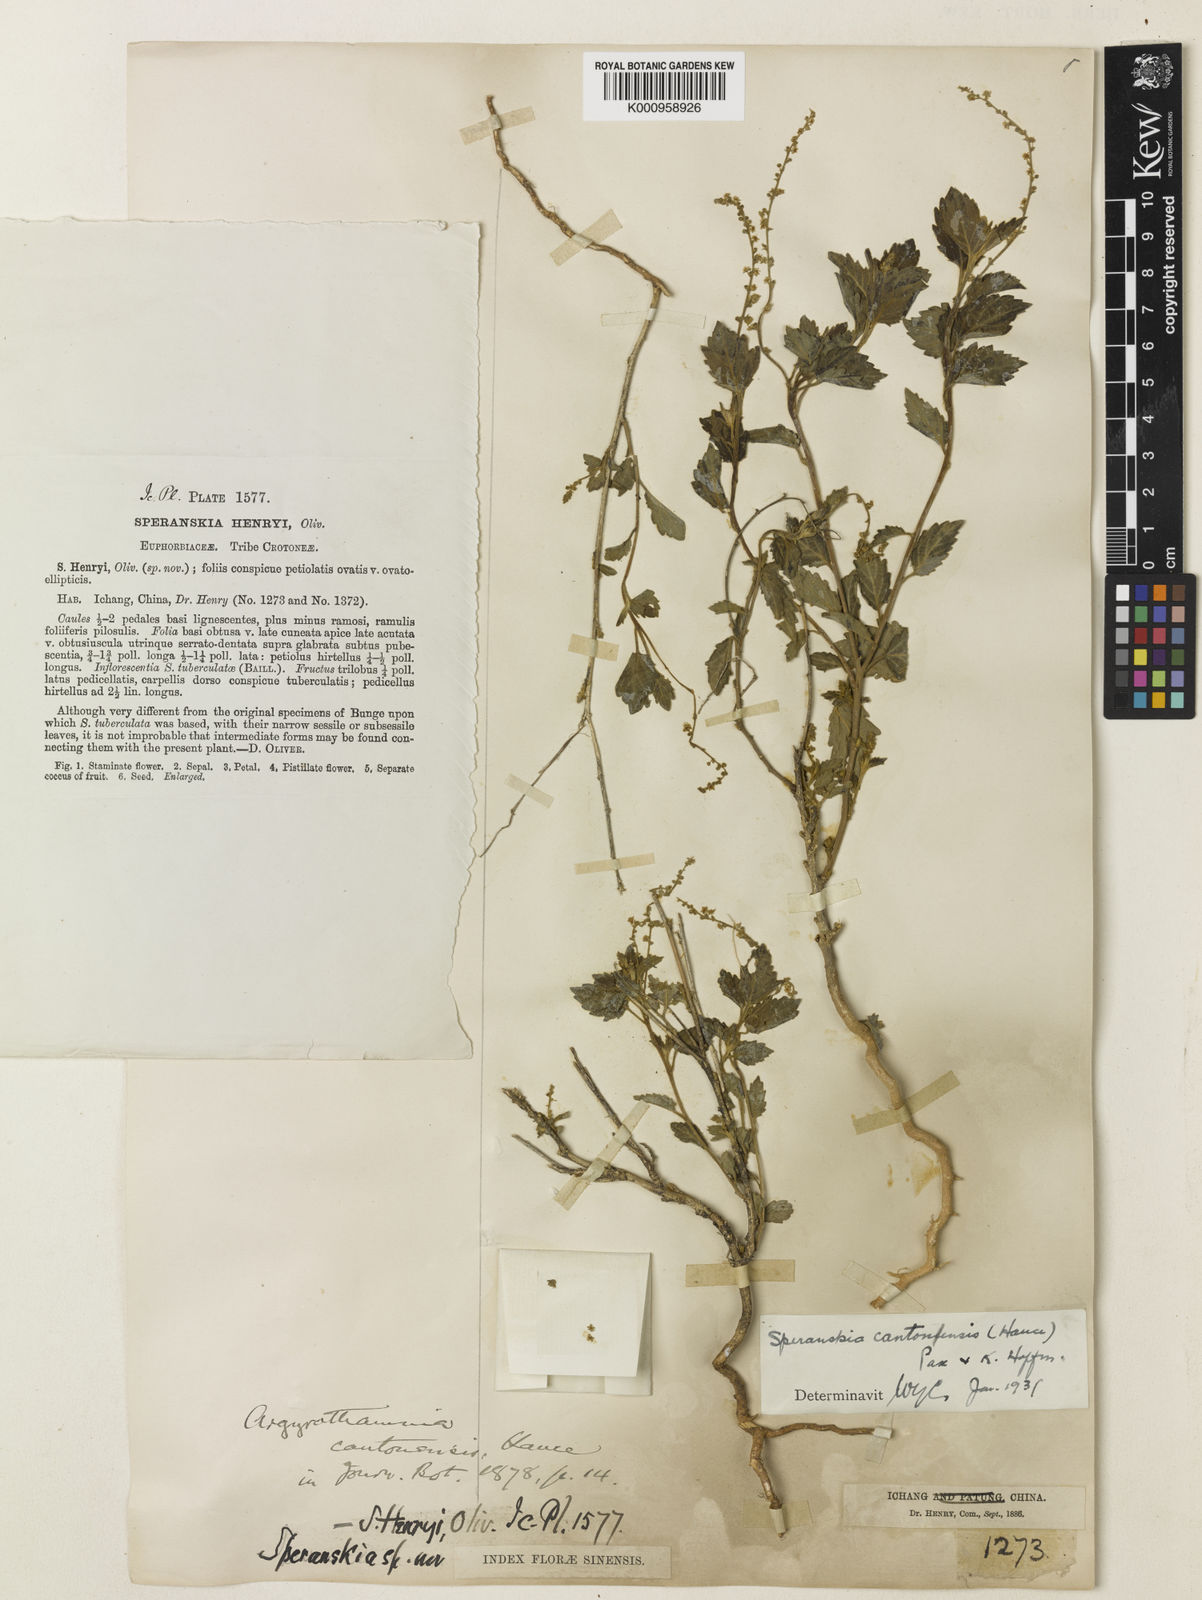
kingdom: Plantae
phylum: Tracheophyta
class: Magnoliopsida
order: Malpighiales
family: Euphorbiaceae
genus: Speranskia
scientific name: Speranskia cantonensis
